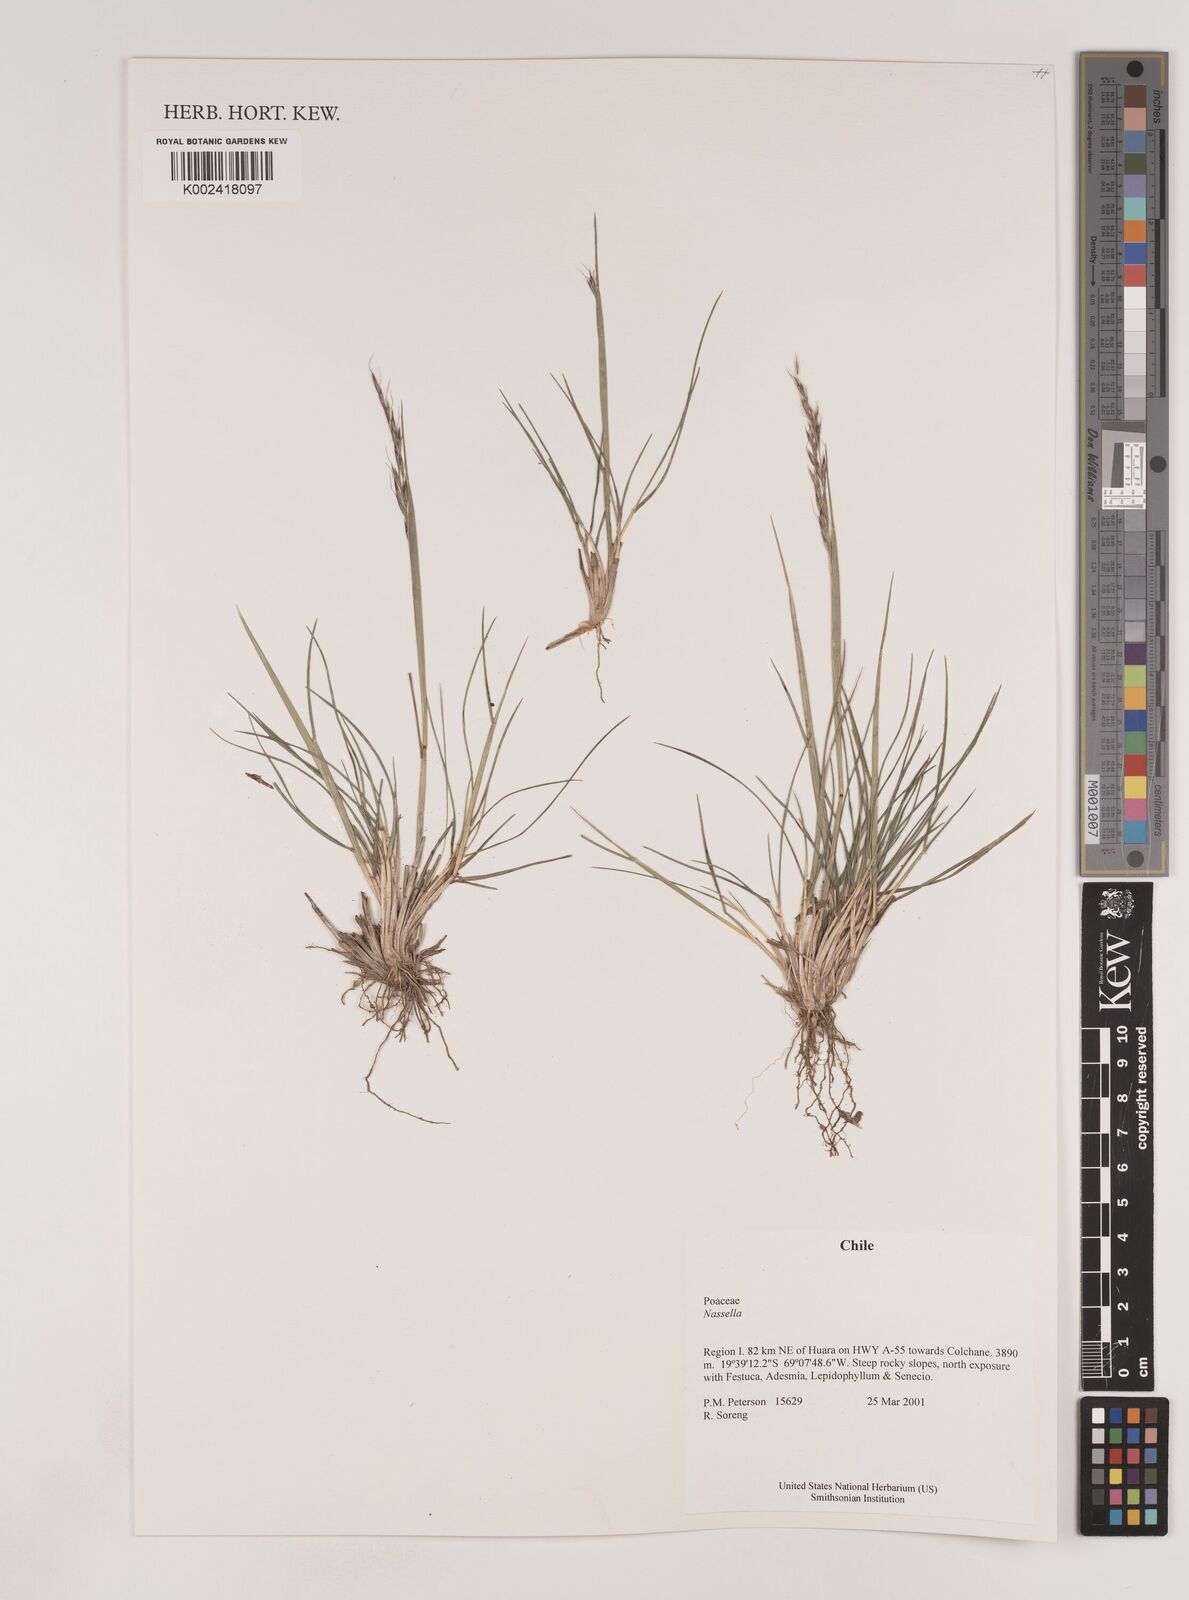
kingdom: Plantae
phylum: Tracheophyta
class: Liliopsida
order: Poales
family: Poaceae
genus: Nassella
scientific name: Nassella
